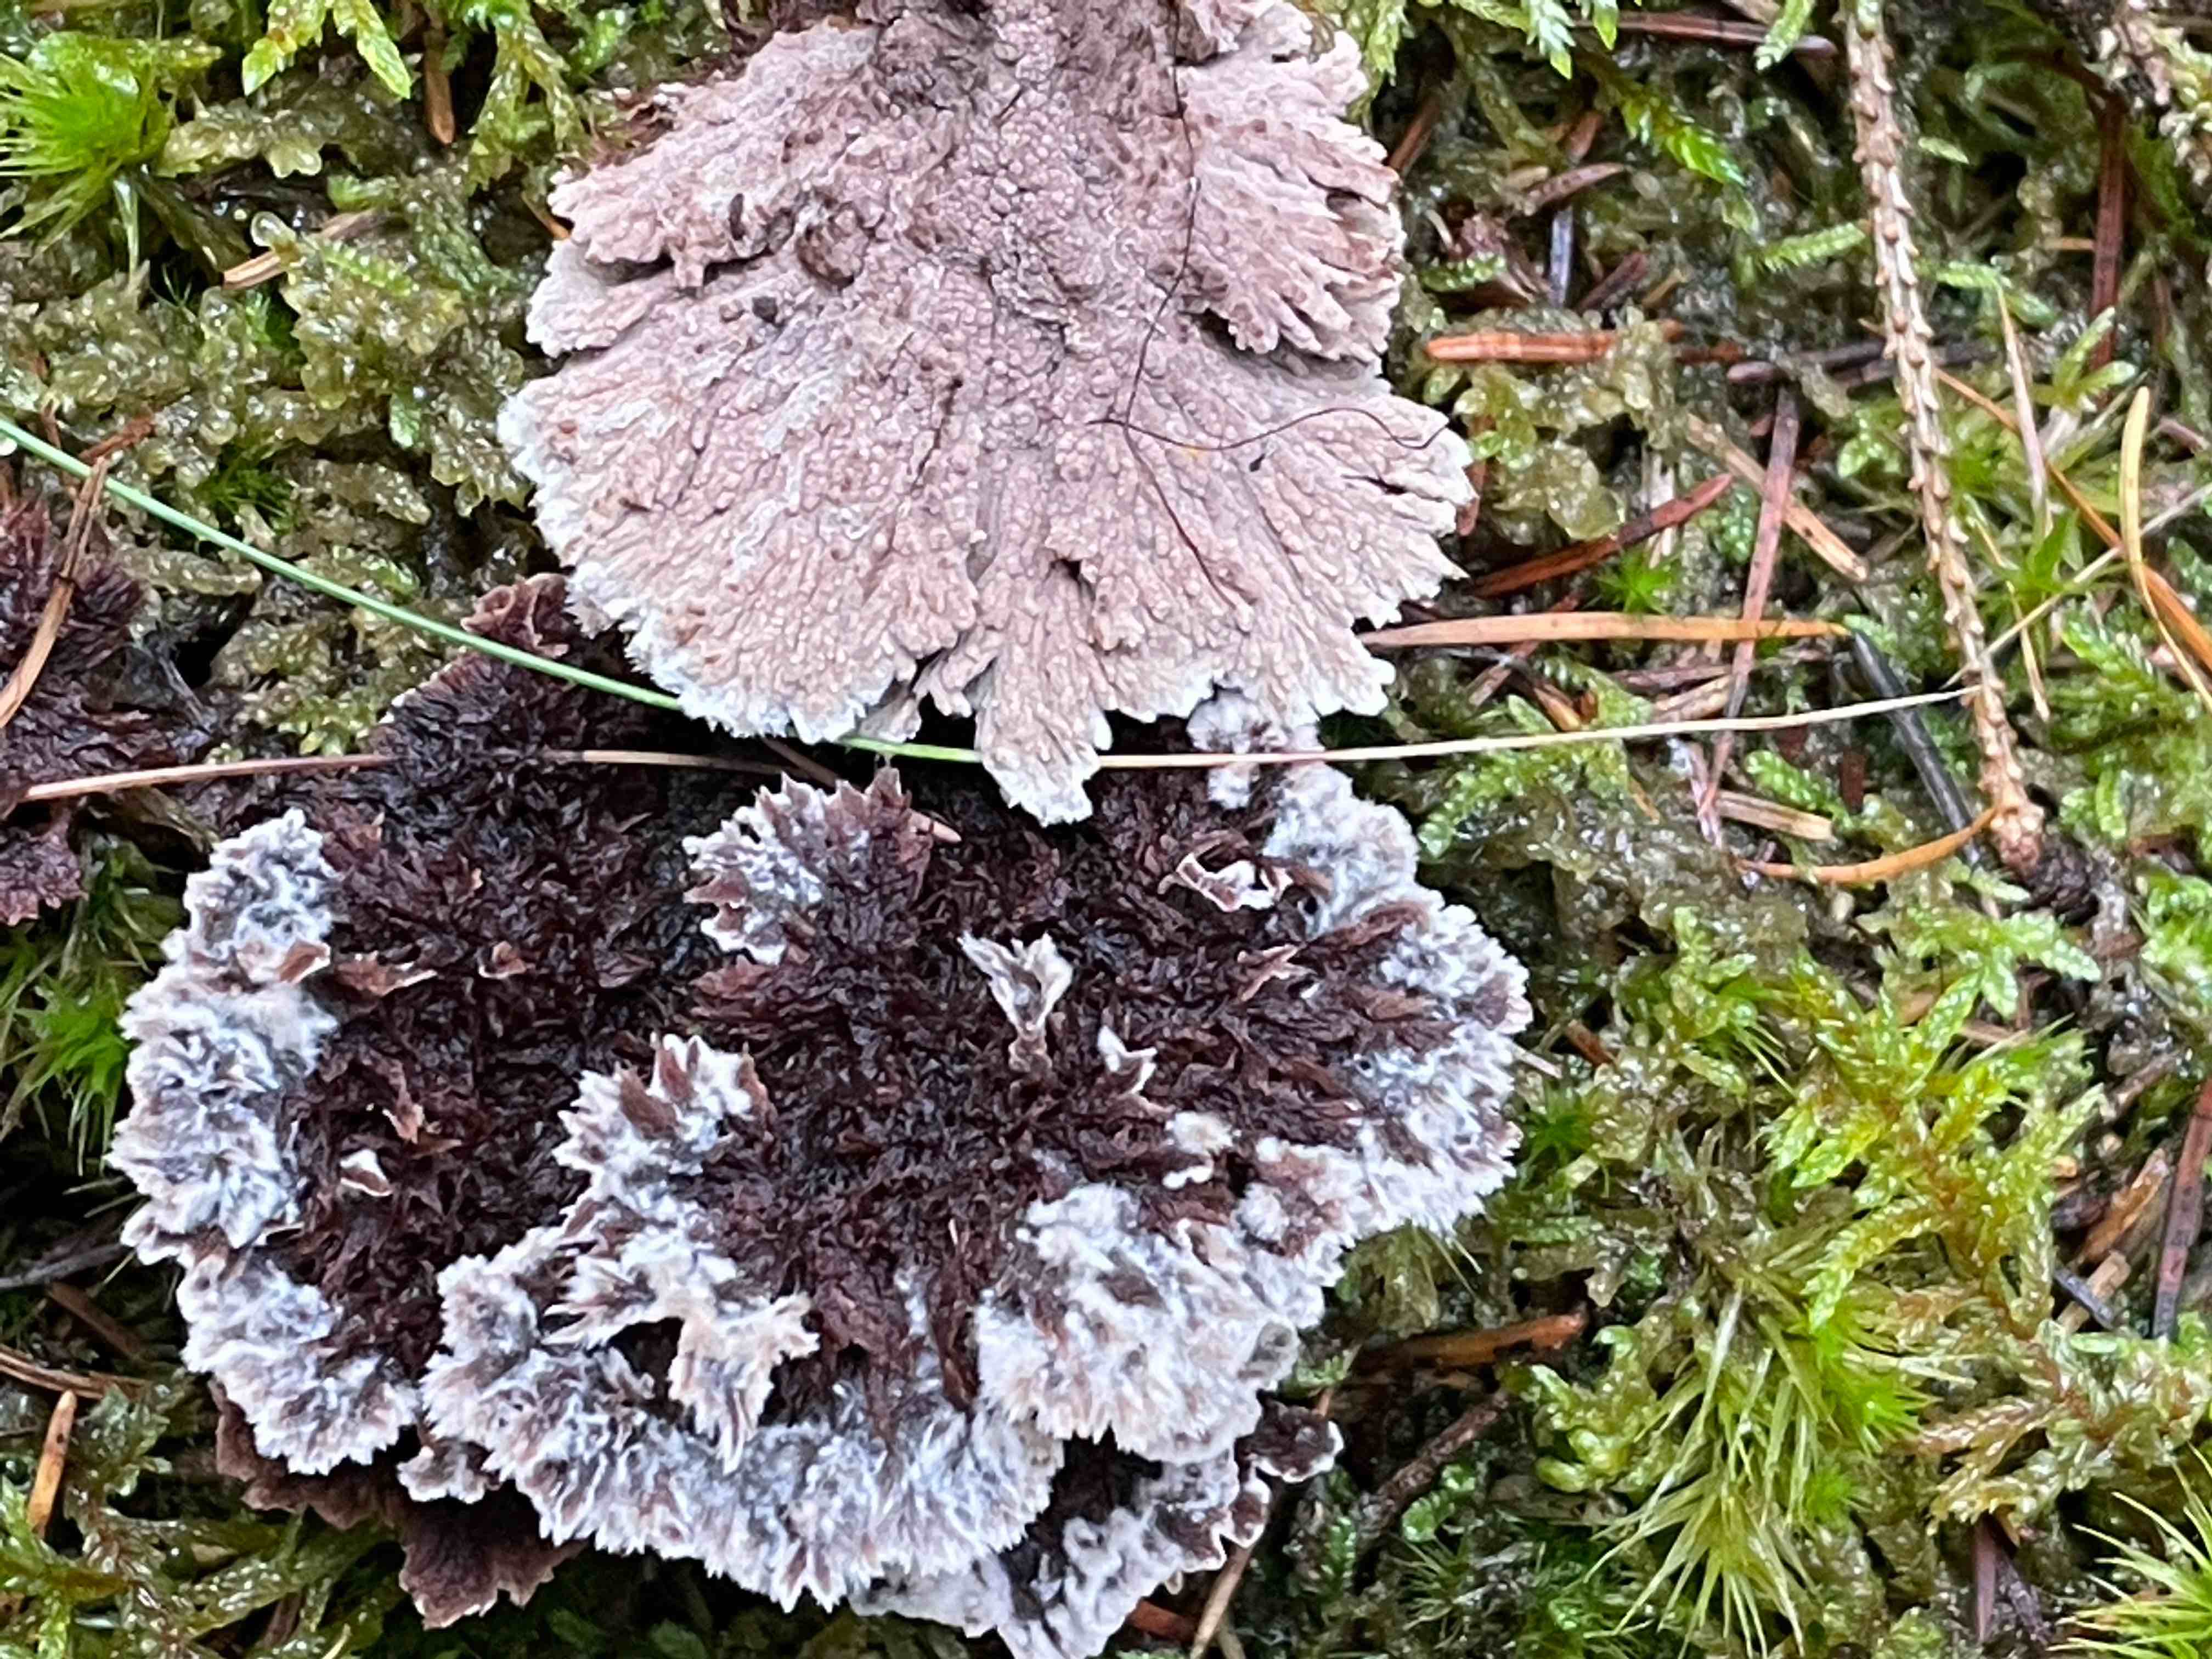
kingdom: Fungi
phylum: Basidiomycota
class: Agaricomycetes
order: Thelephorales
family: Thelephoraceae
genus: Thelephora
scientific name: Thelephora terrestris
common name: fliget frynsesvamp
